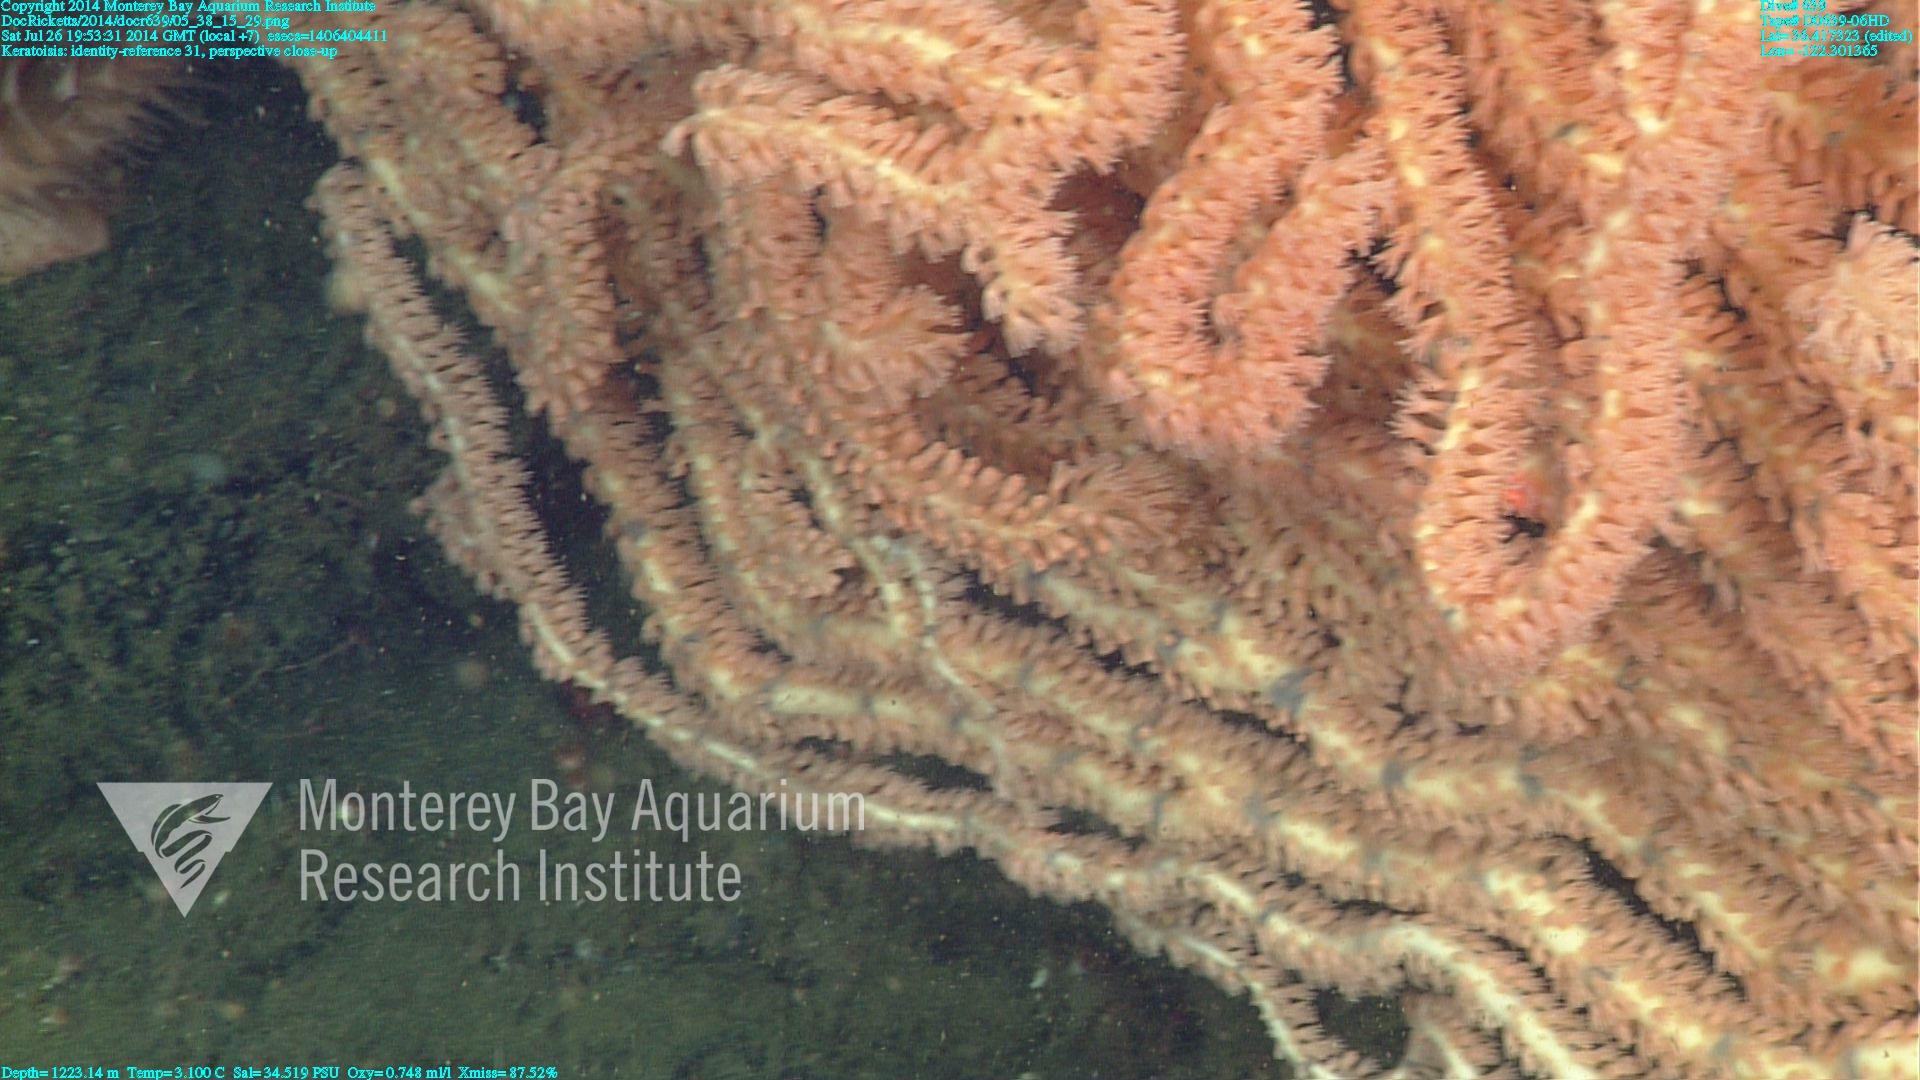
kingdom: Animalia
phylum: Cnidaria
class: Anthozoa
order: Scleralcyonacea
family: Keratoisididae
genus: Keratoisis
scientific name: Keratoisis
